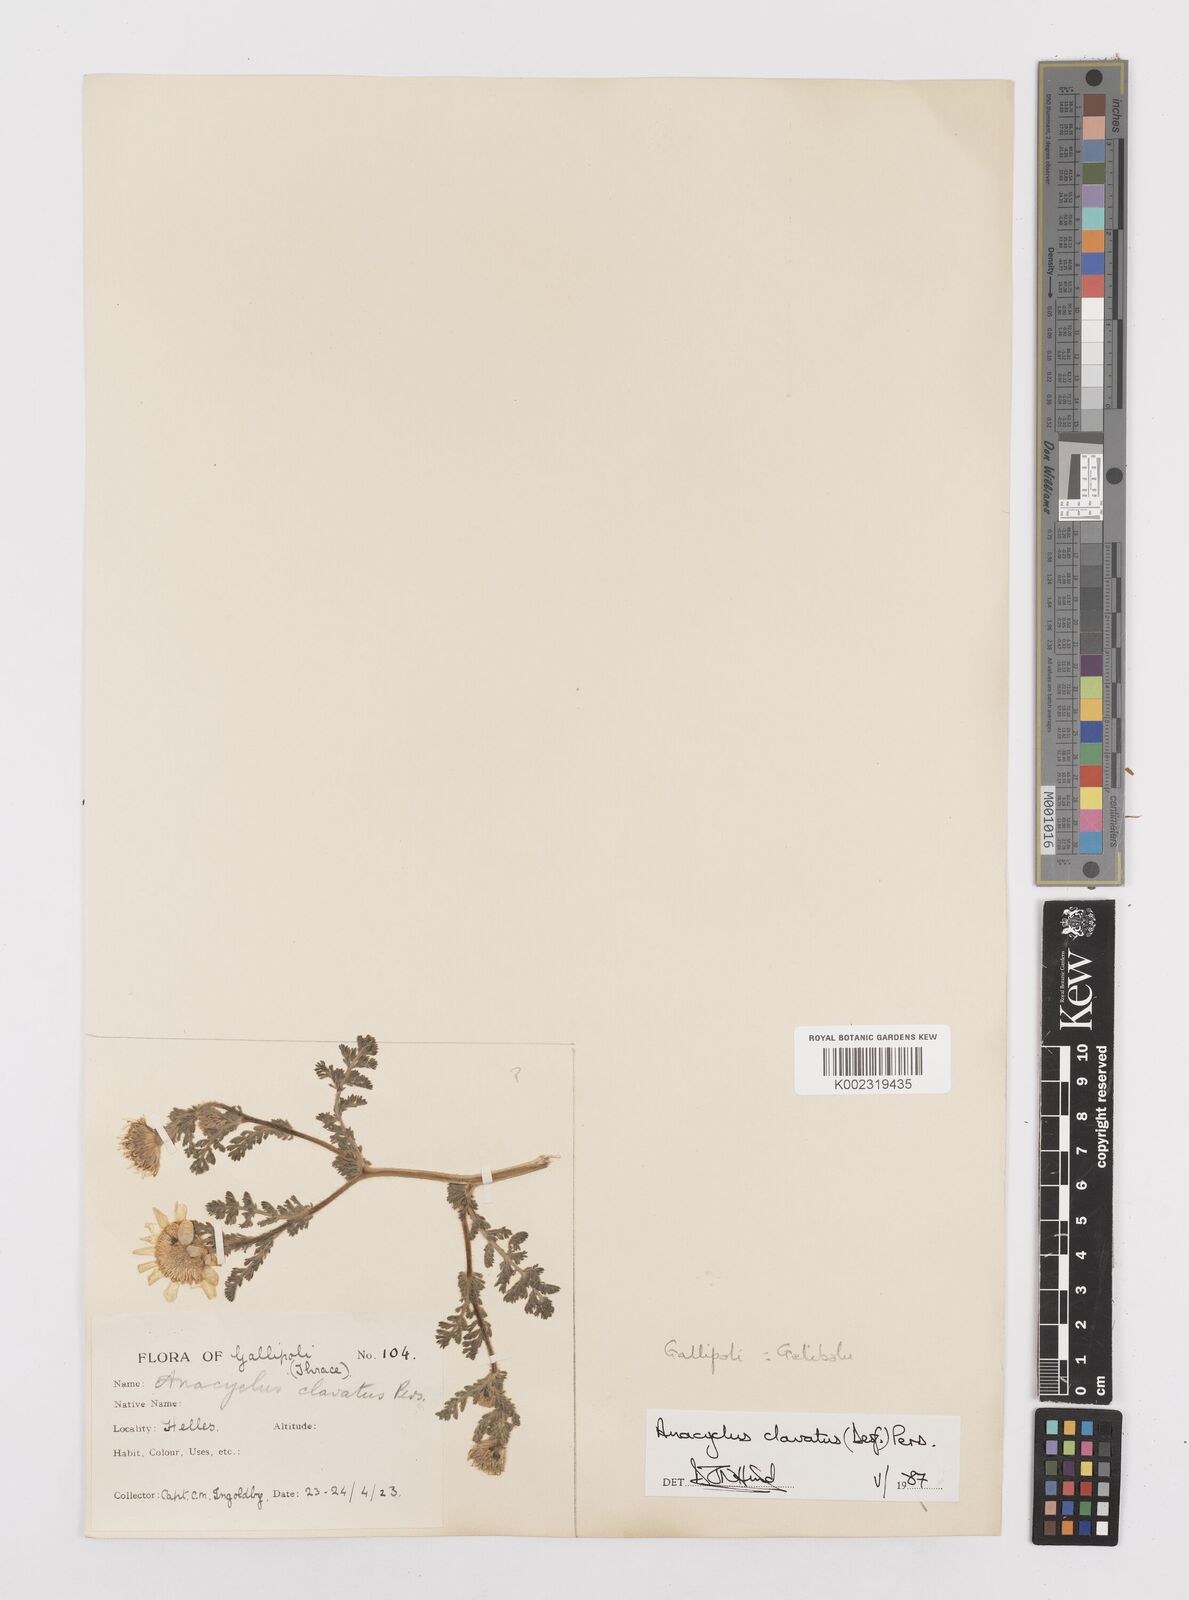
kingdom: Plantae
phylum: Tracheophyta
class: Magnoliopsida
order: Asterales
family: Asteraceae
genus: Anacyclus
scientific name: Anacyclus clavatus
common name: Whitebuttons
